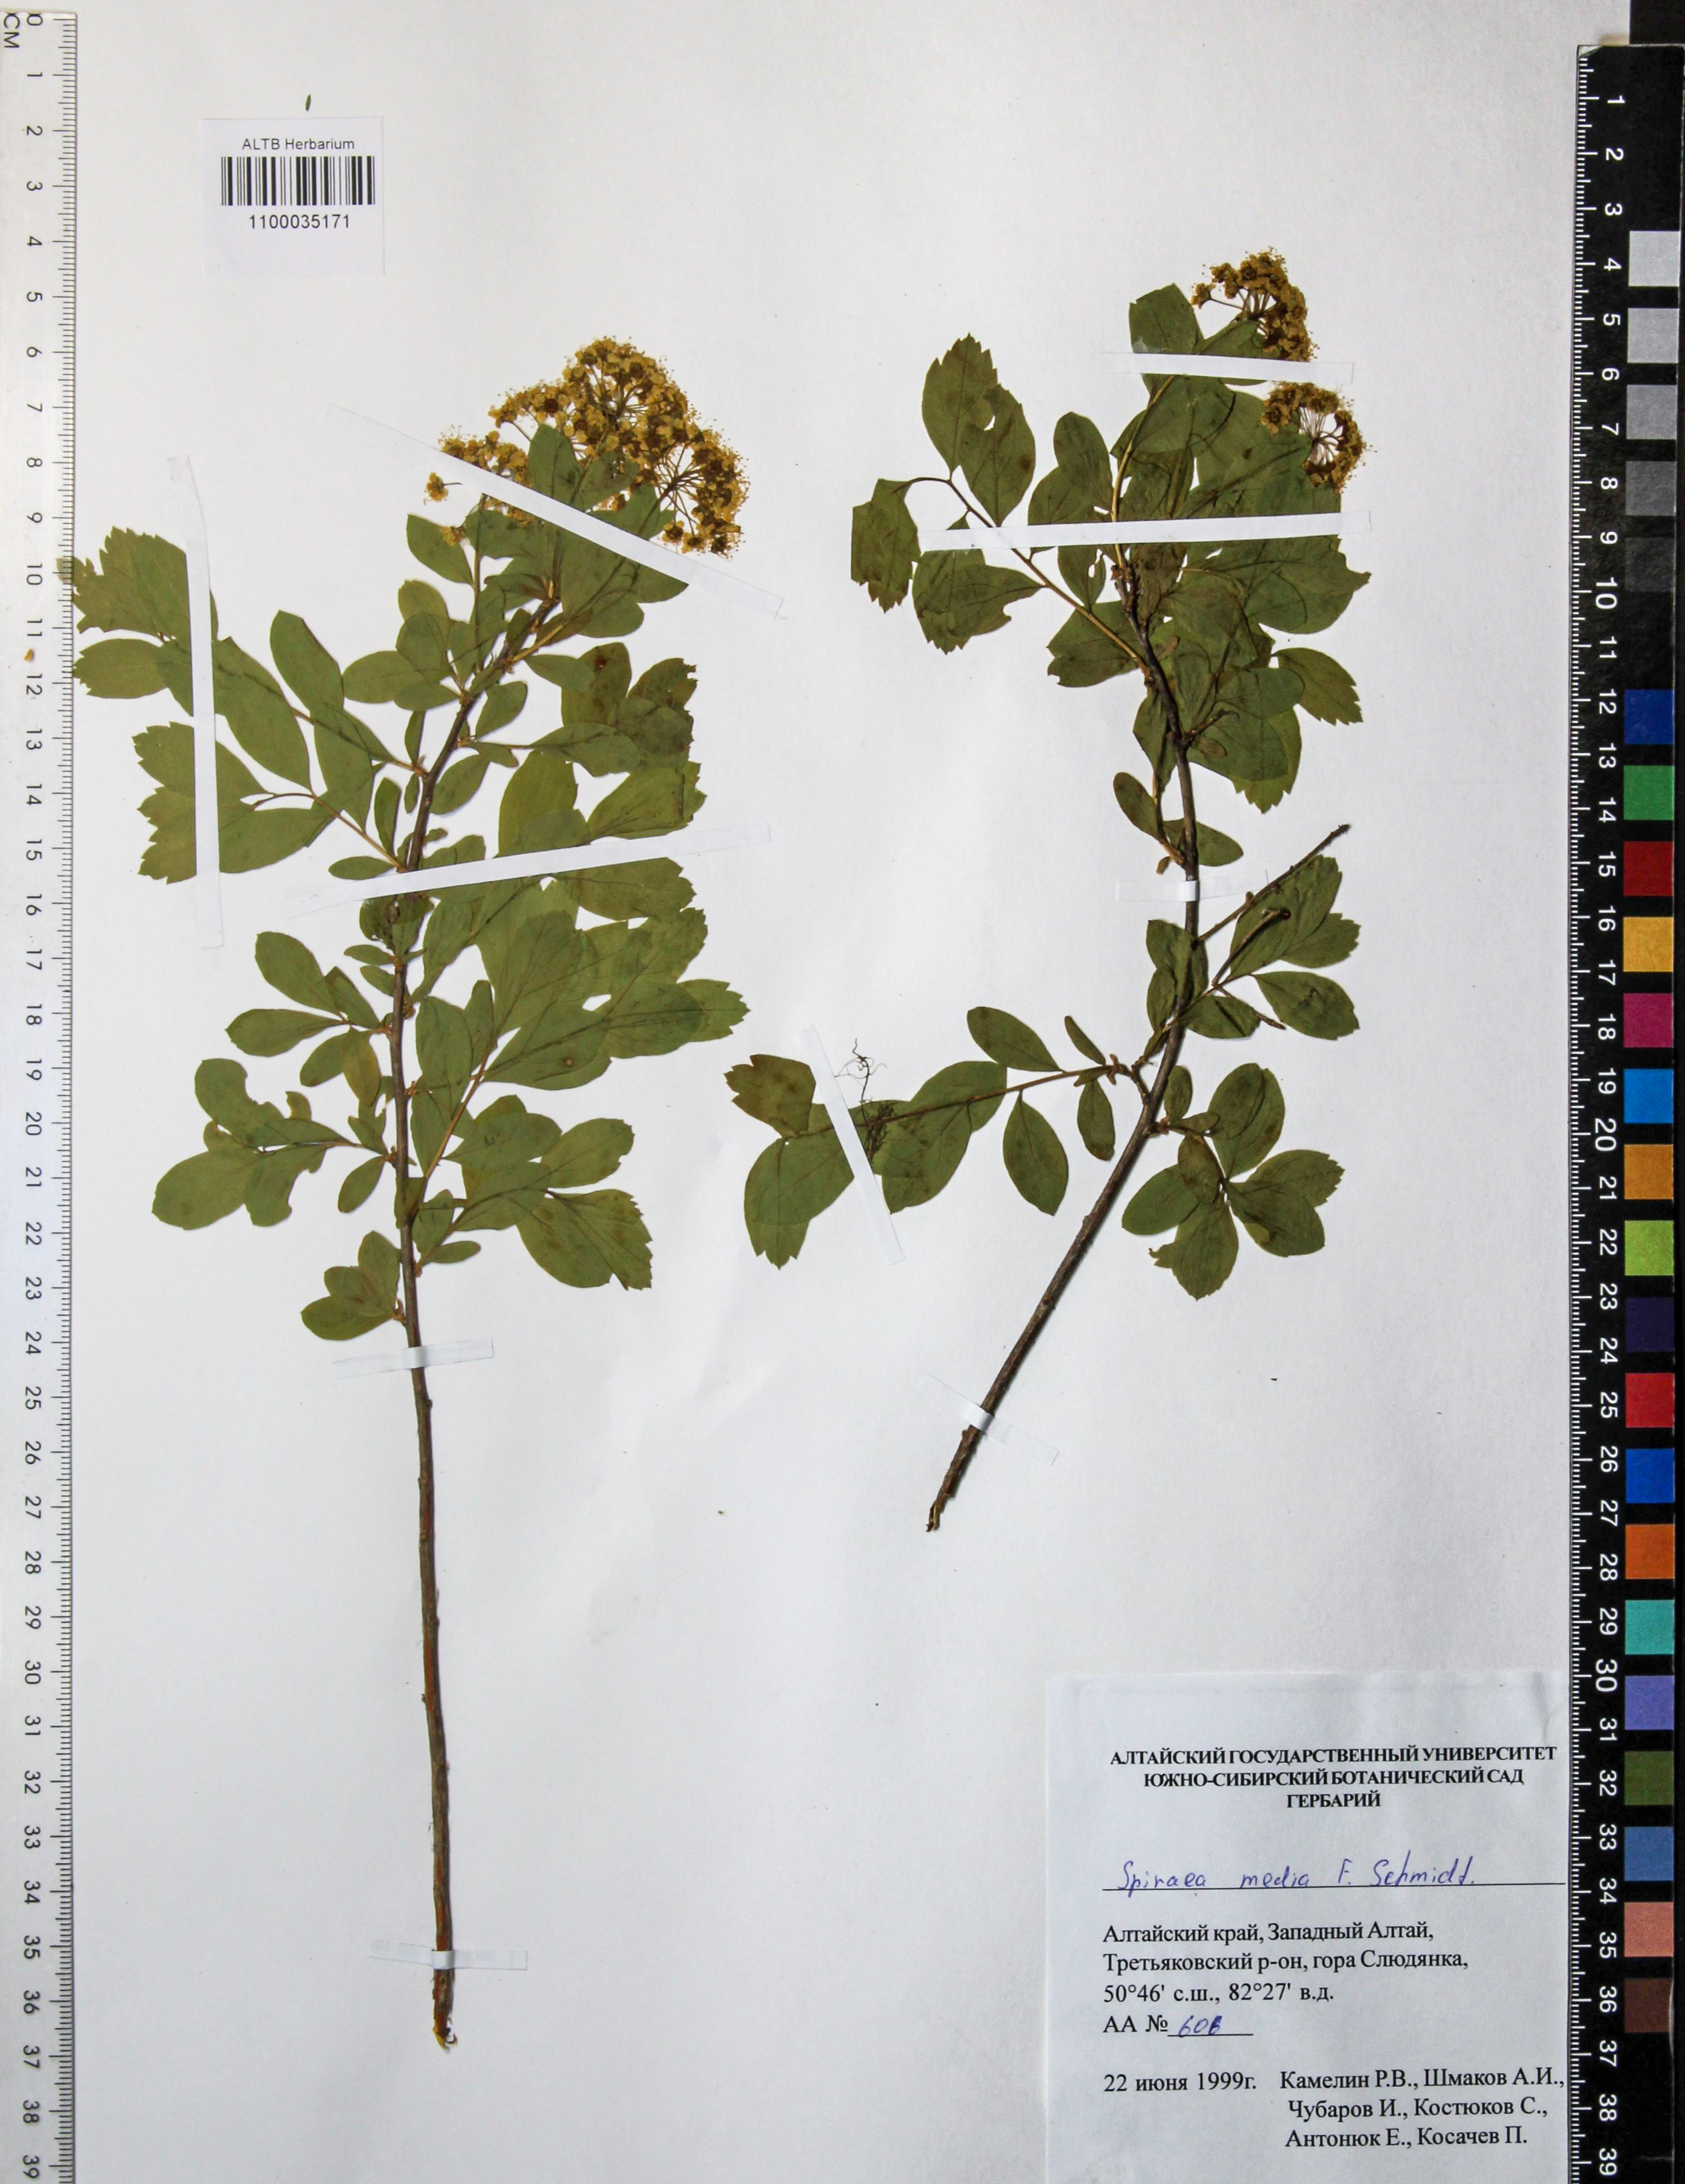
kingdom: Plantae
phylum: Tracheophyta
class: Magnoliopsida
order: Rosales
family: Rosaceae
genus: Spiraea
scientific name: Spiraea media
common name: Russian spiraea
